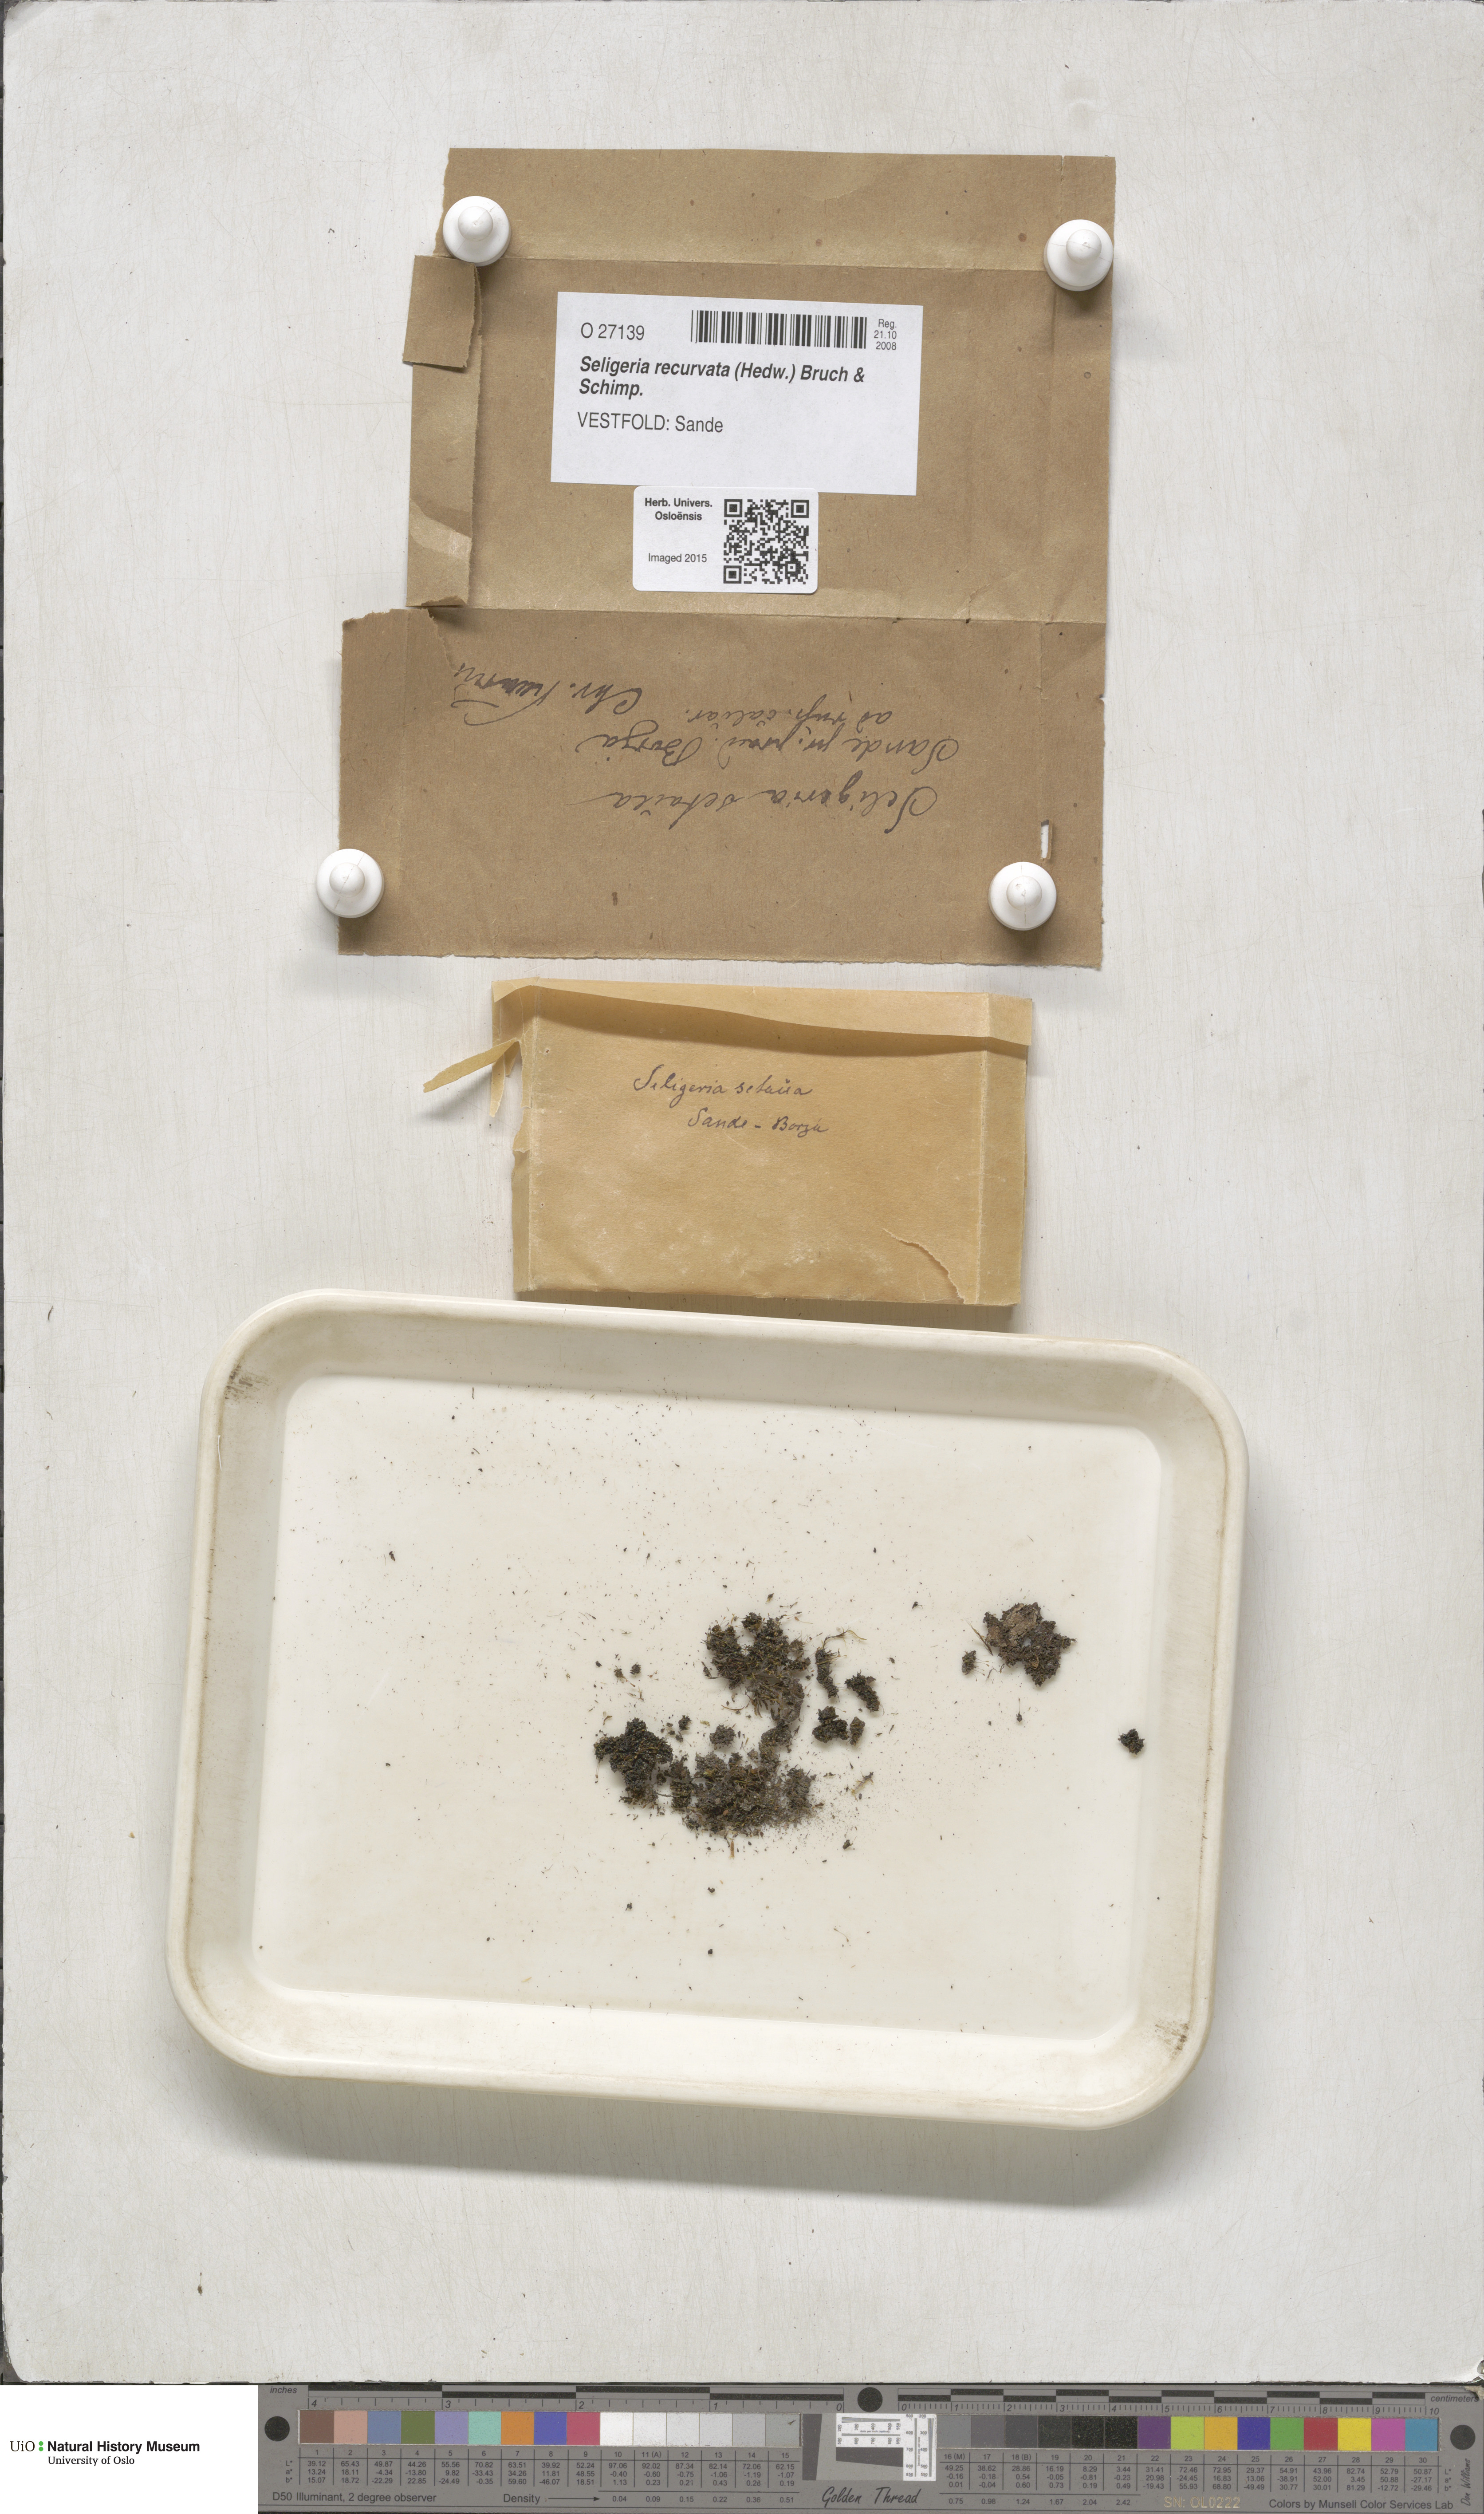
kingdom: Plantae
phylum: Bryophyta
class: Bryopsida
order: Grimmiales
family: Seligeriaceae
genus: Blindiadelphus
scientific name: Blindiadelphus recurvatus
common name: Recurved rock-bristle
